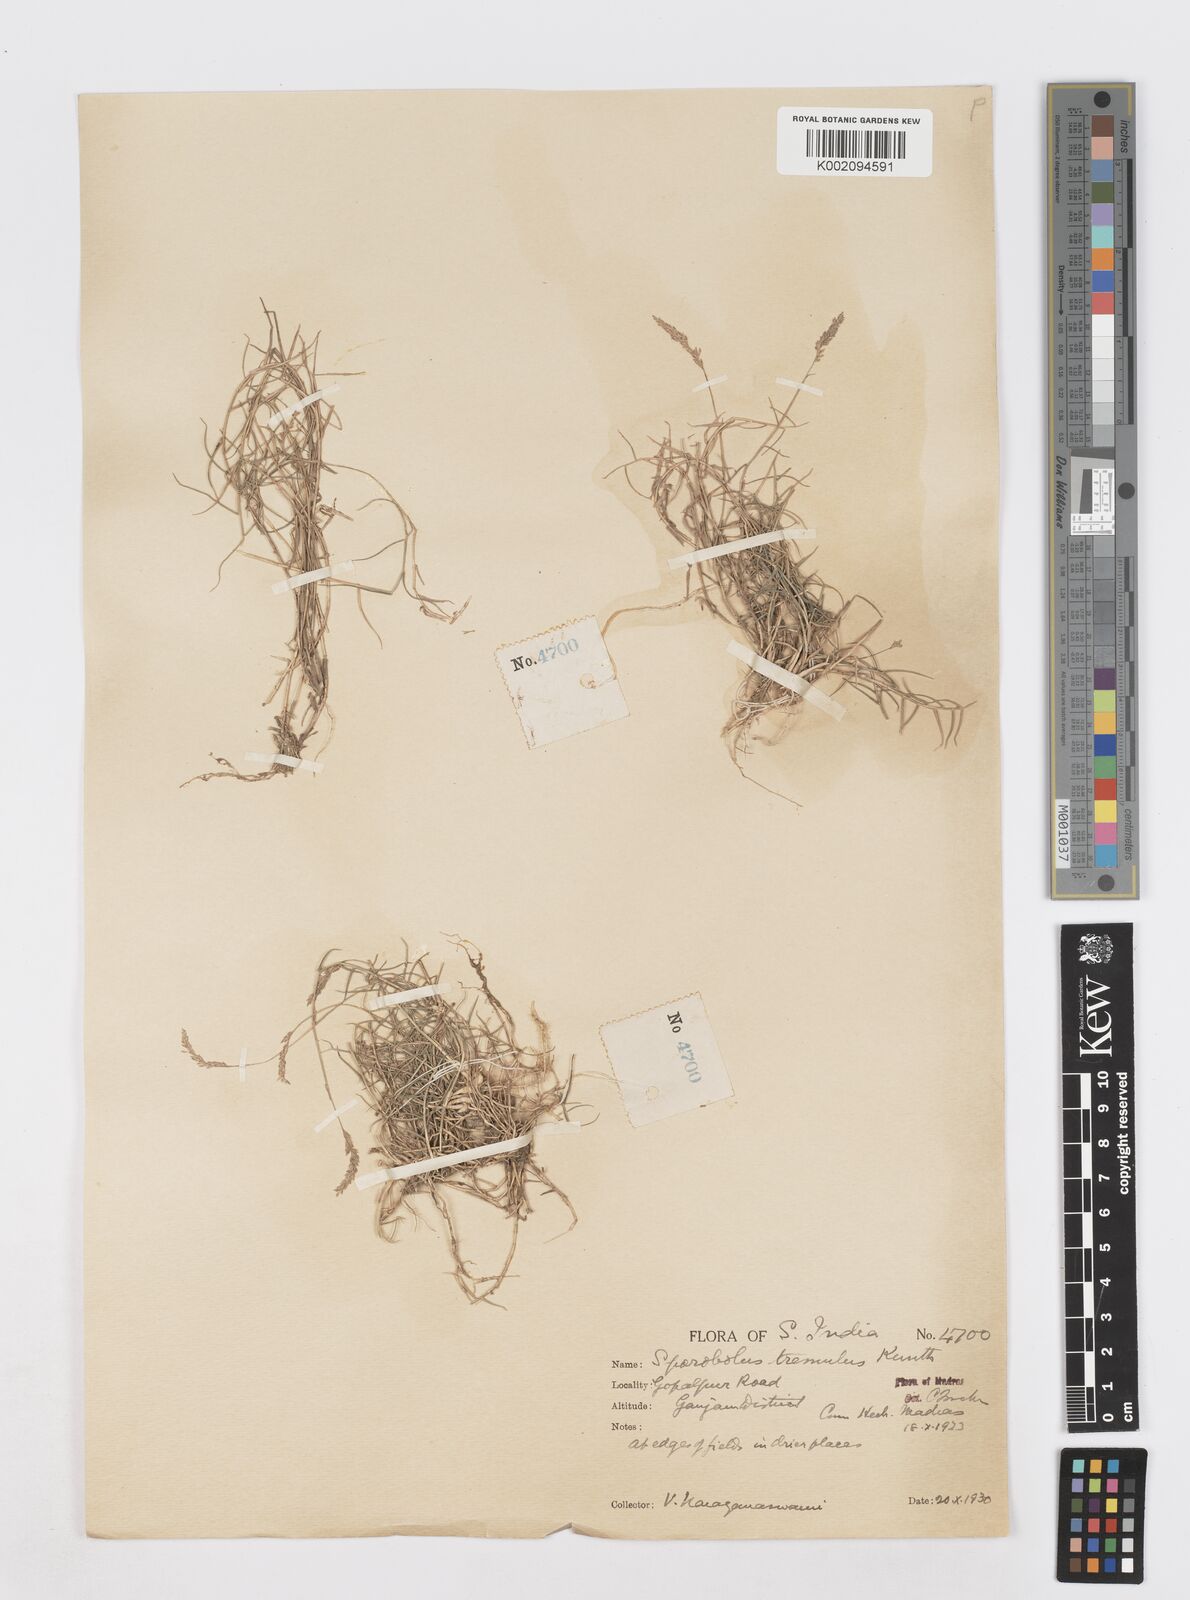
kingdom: Plantae
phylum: Tracheophyta
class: Liliopsida
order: Poales
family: Poaceae
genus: Sporobolus
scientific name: Sporobolus virginicus
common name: Beach dropseed
